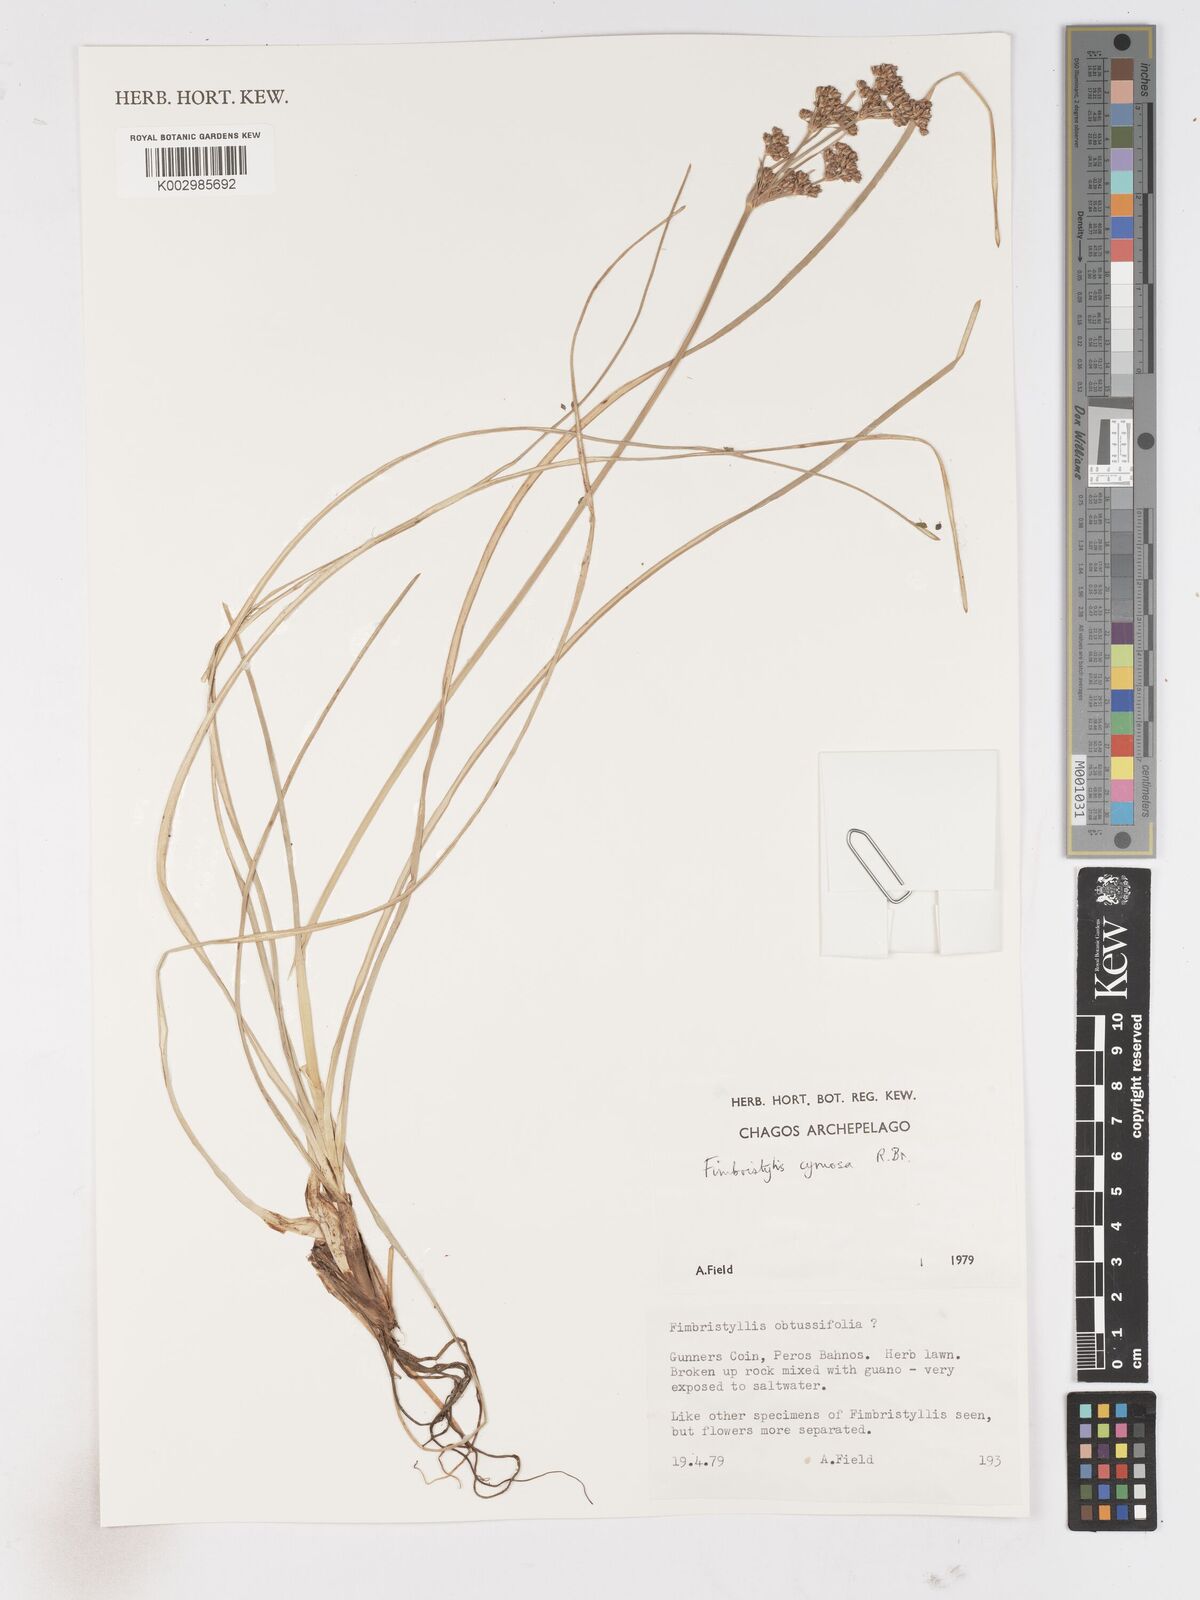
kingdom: Plantae
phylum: Tracheophyta
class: Liliopsida
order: Poales
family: Cyperaceae
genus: Fimbristylis
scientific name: Fimbristylis cymosa
